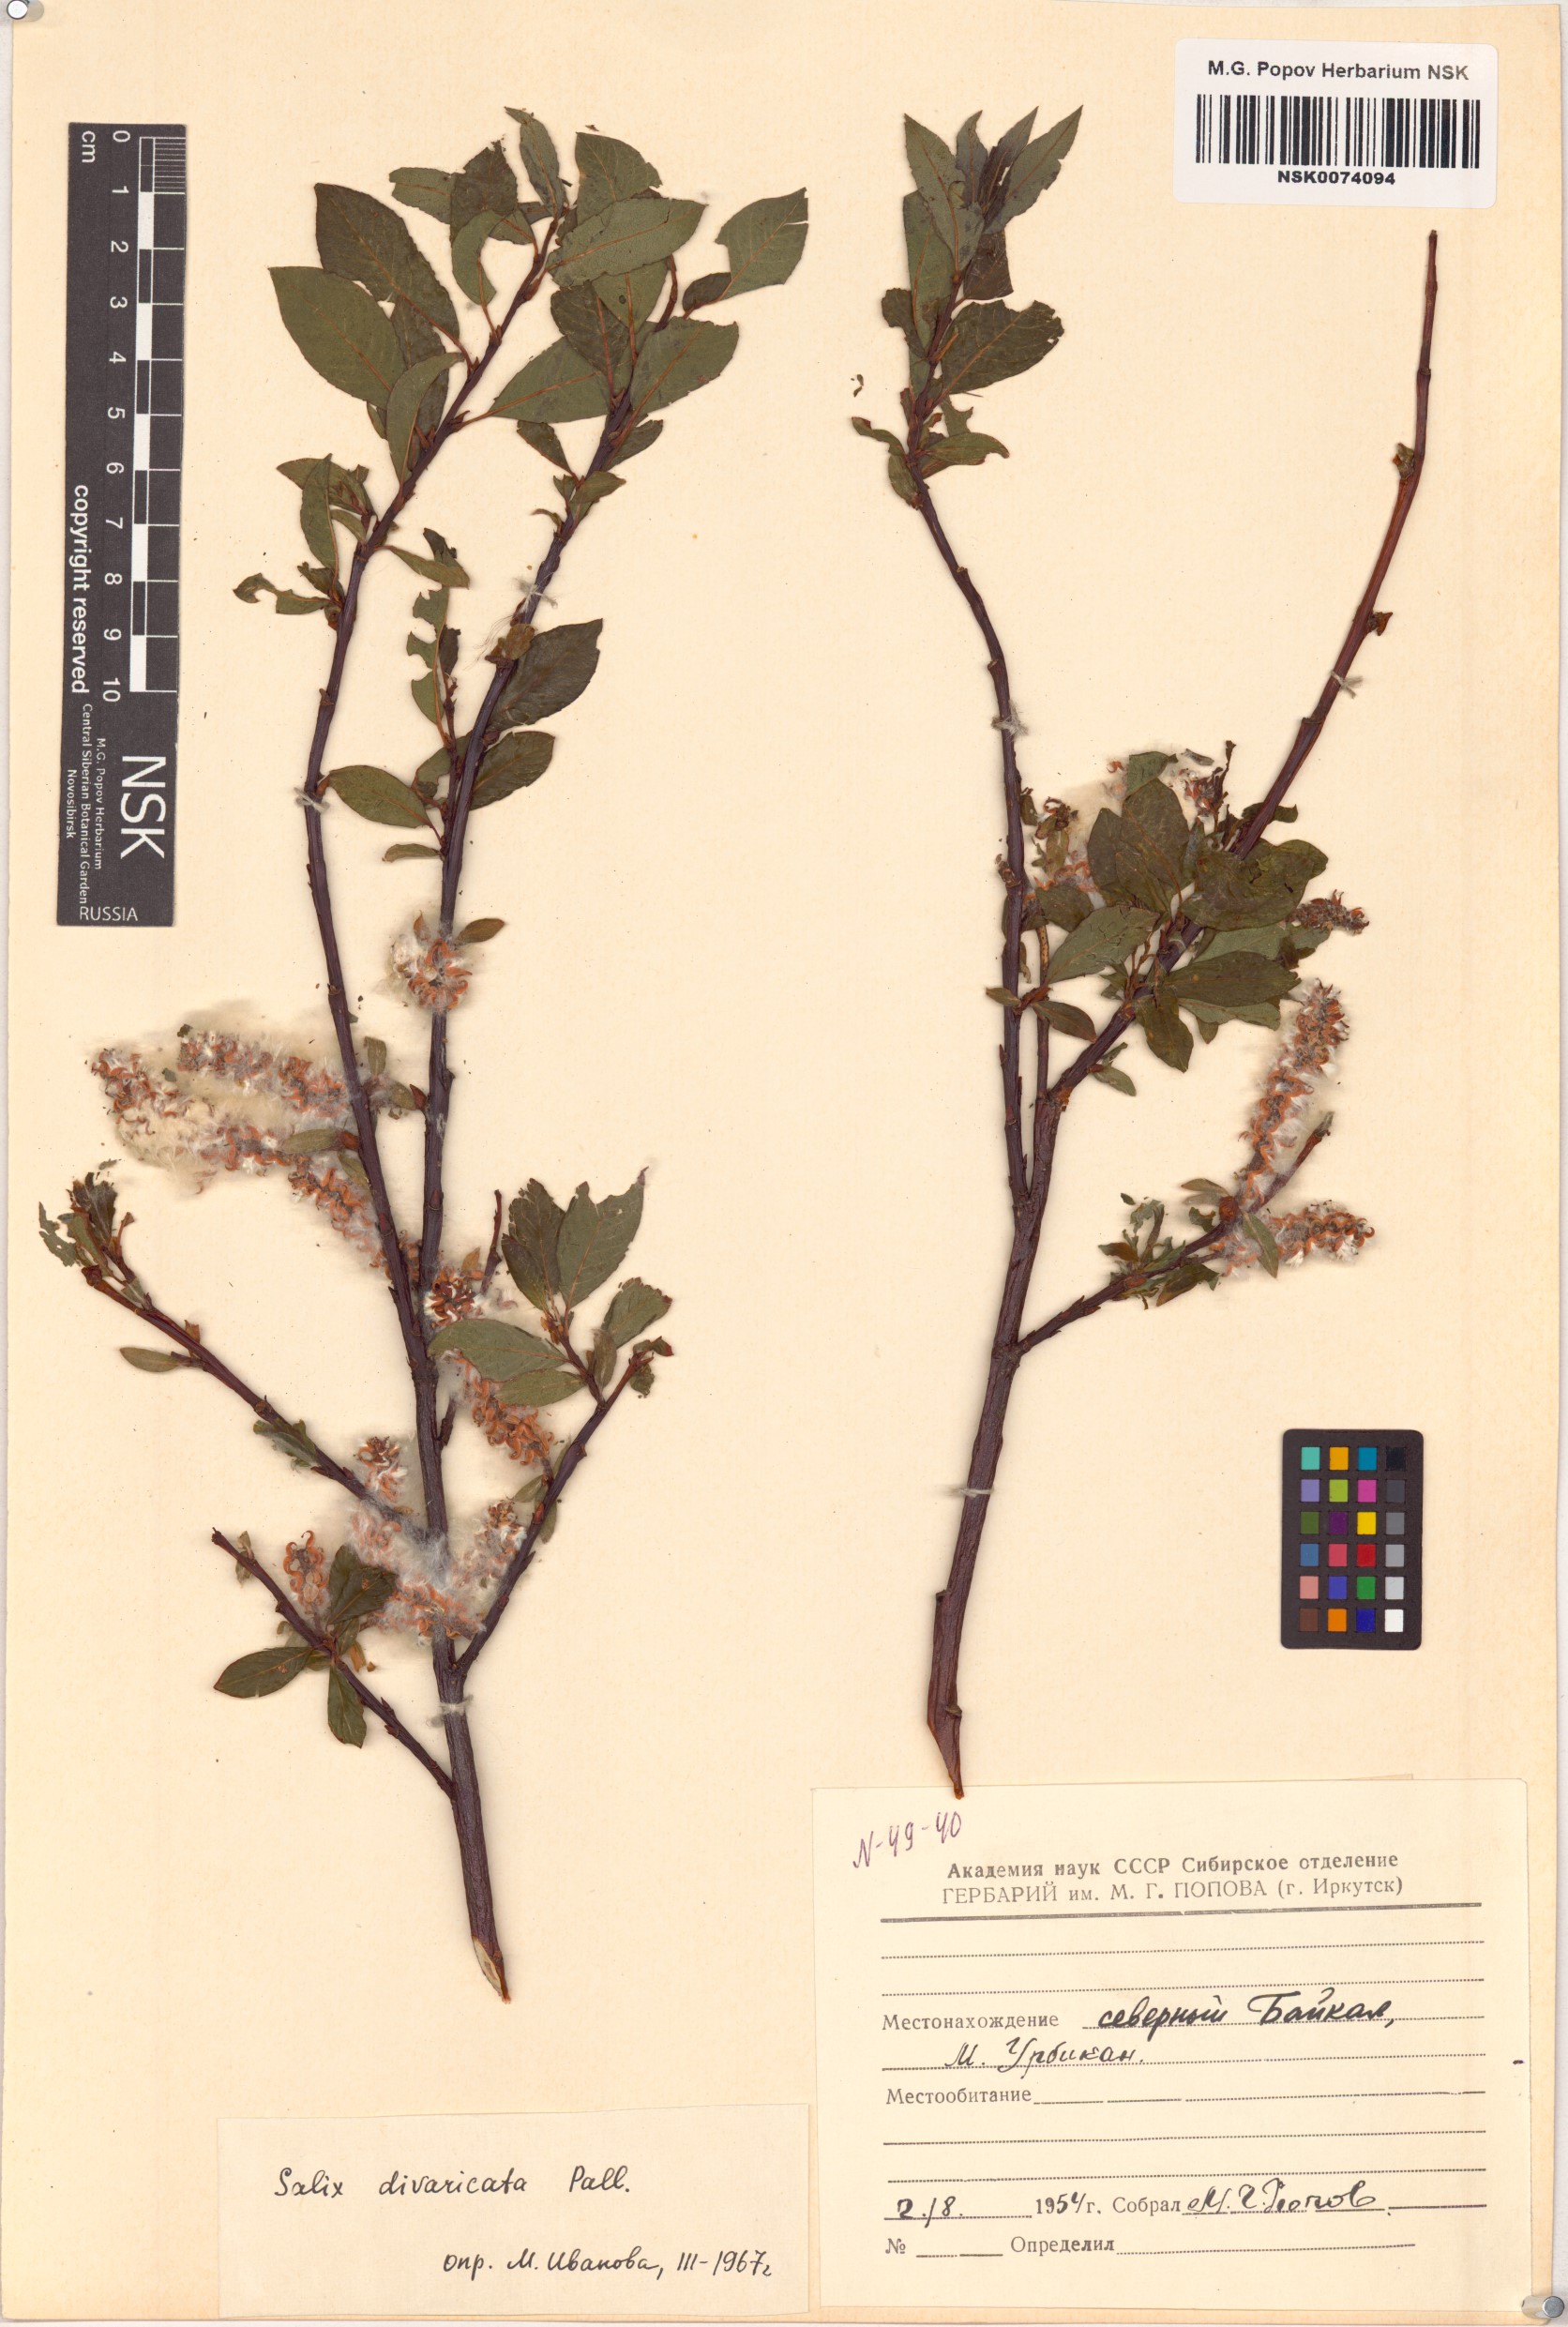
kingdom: Plantae
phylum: Tracheophyta
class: Magnoliopsida
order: Malpighiales
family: Salicaceae
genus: Salix
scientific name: Salix divaricata
